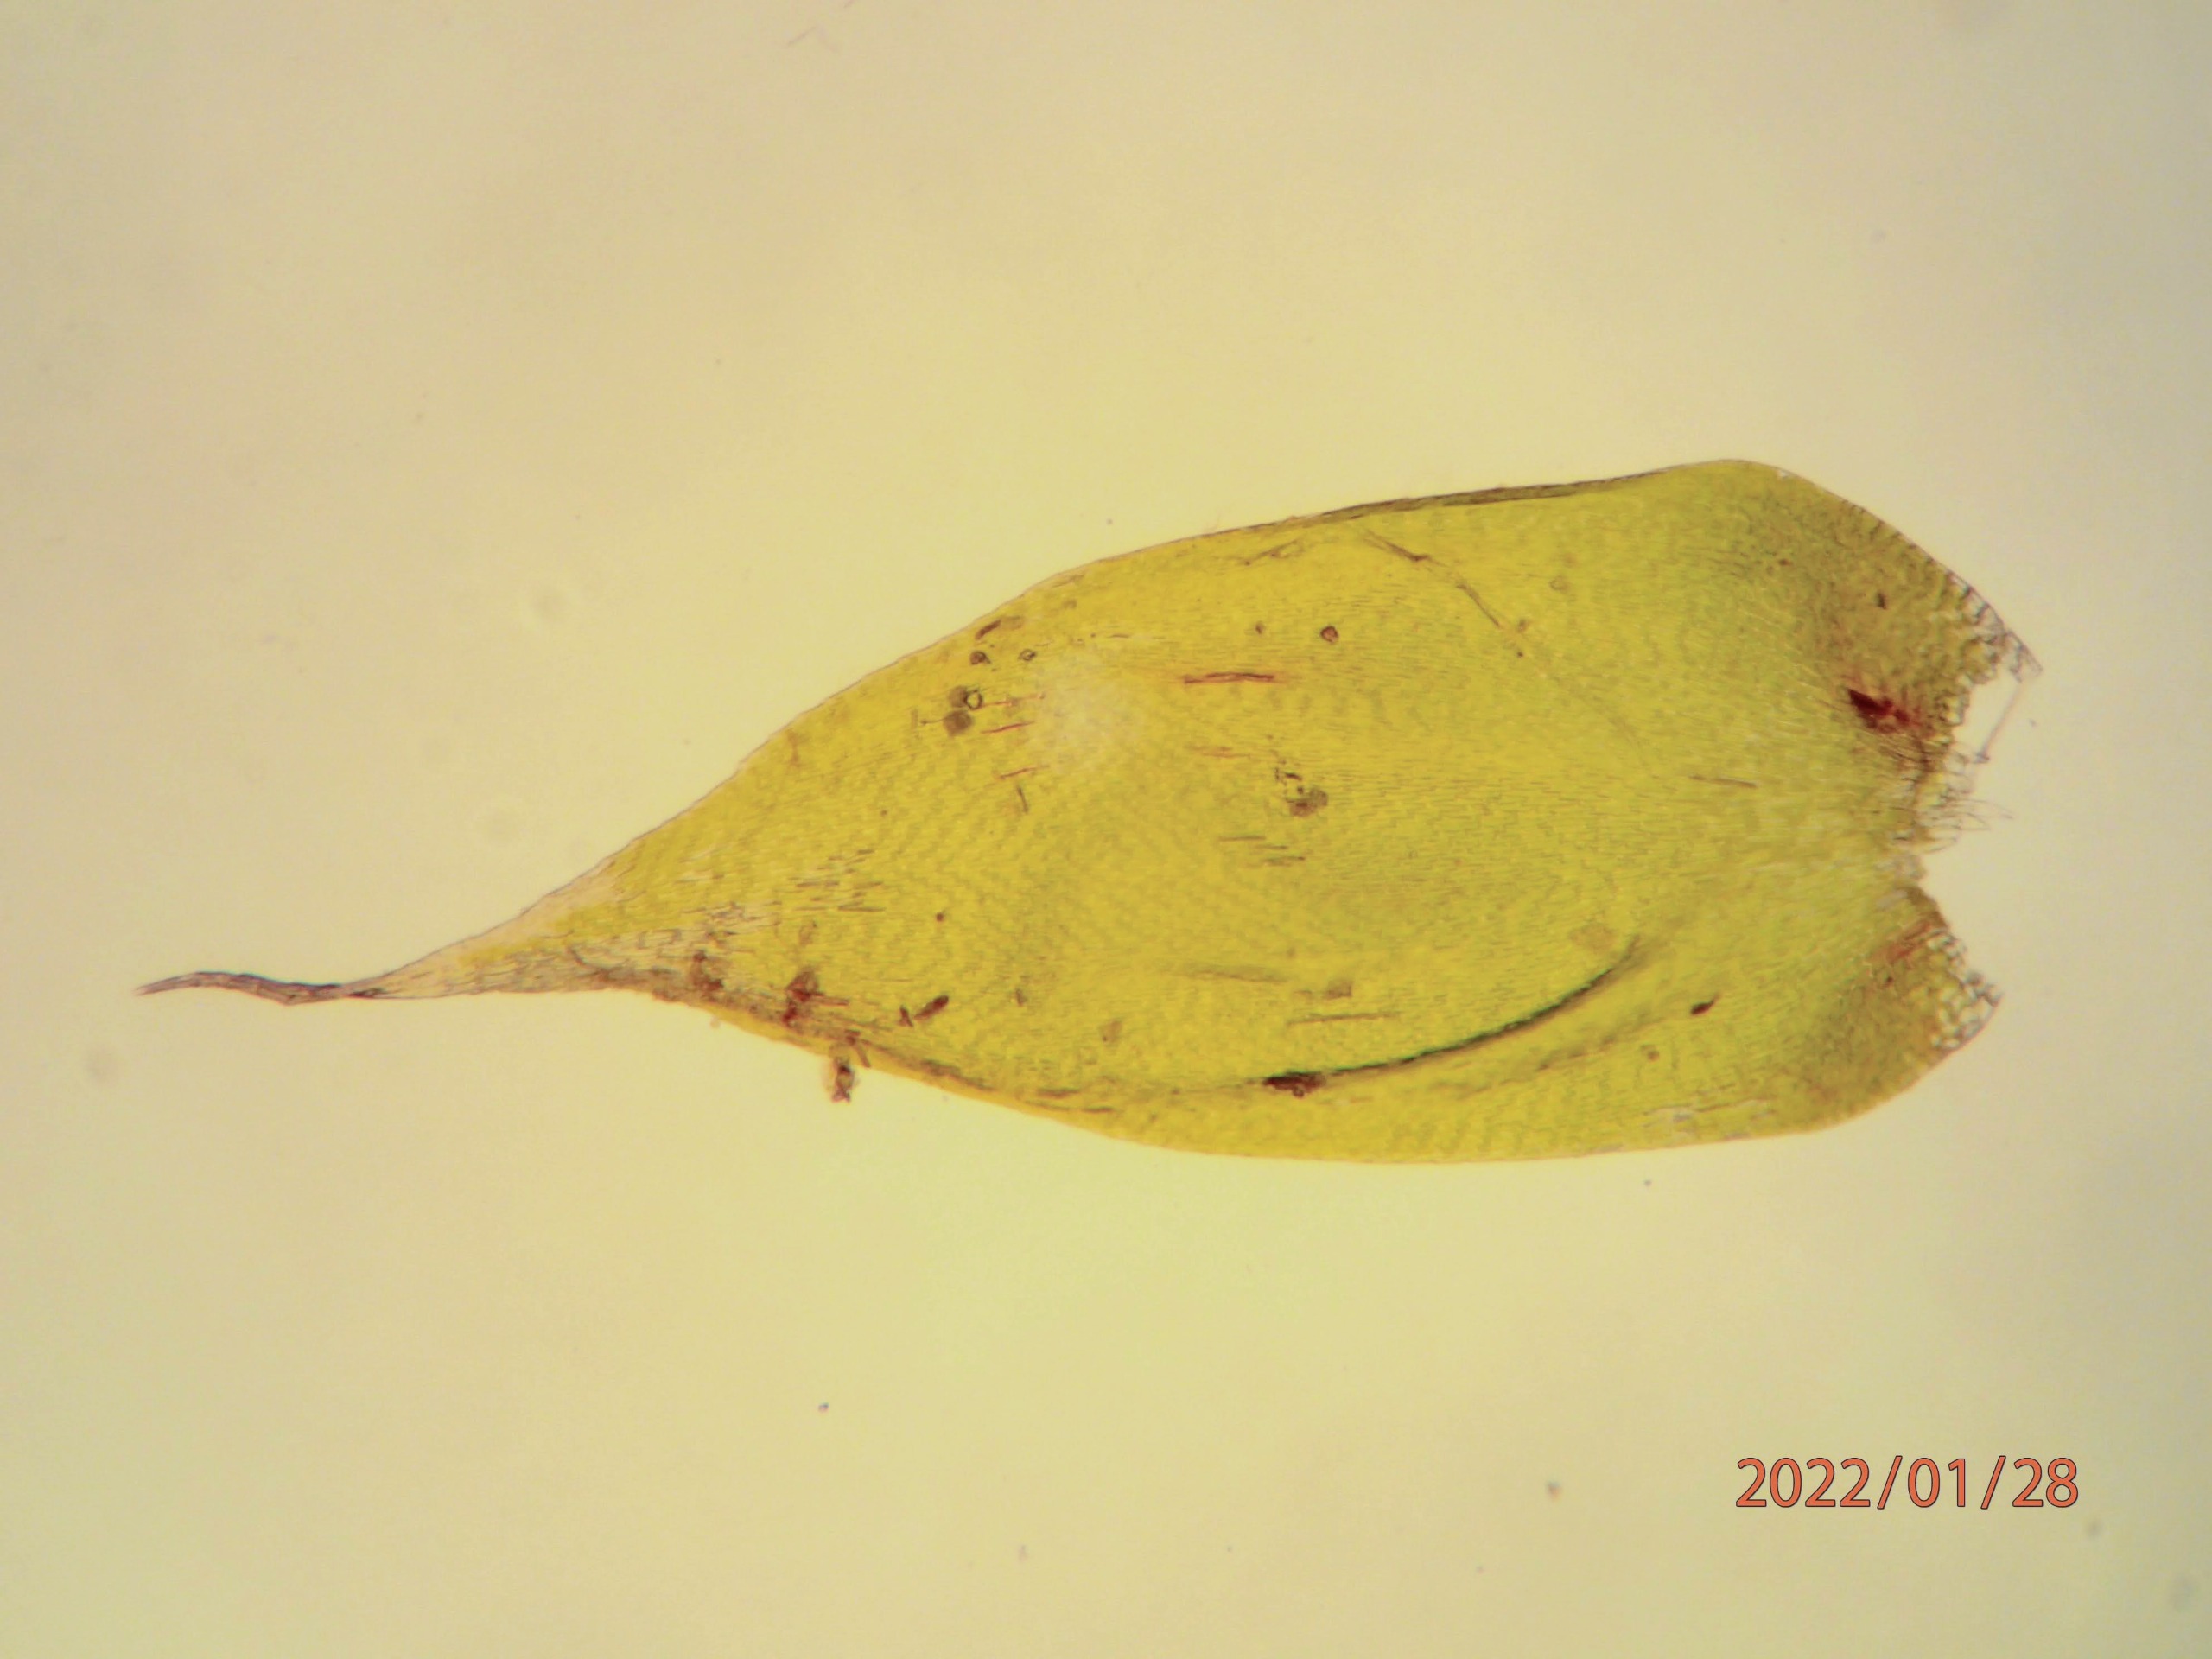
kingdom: Plantae
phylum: Bryophyta
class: Bryopsida
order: Hypnales
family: Hypnaceae
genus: Hypnum
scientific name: Hypnum cupressiforme
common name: Almindelig cypresmos
